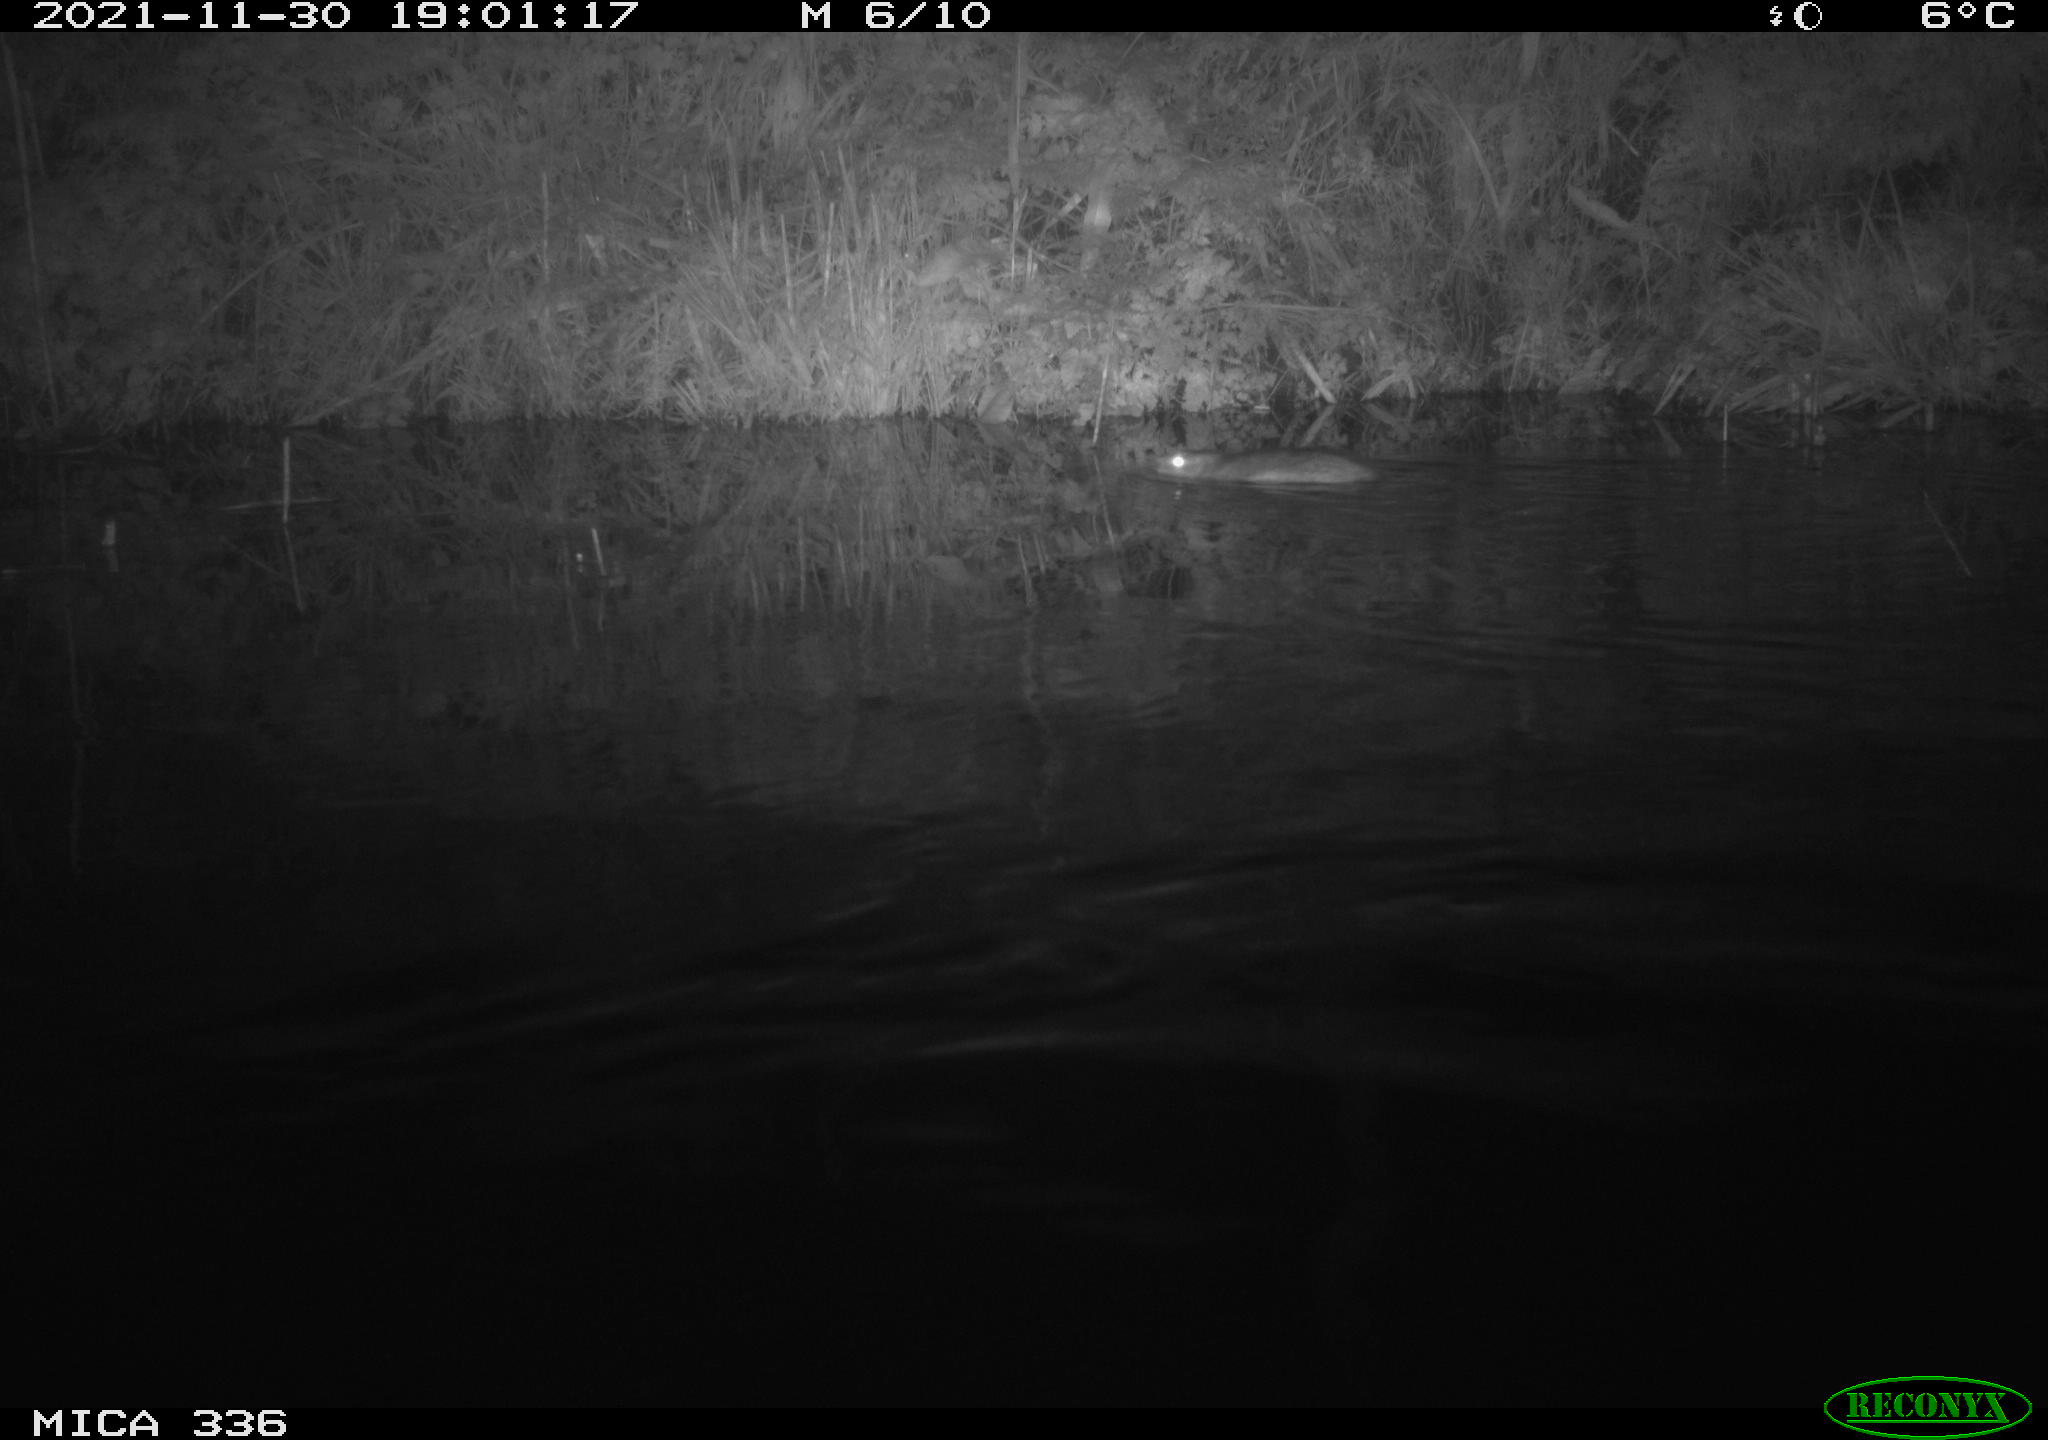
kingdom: Animalia
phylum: Chordata
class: Mammalia
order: Rodentia
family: Cricetidae
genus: Ondatra
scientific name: Ondatra zibethicus
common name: Muskrat
